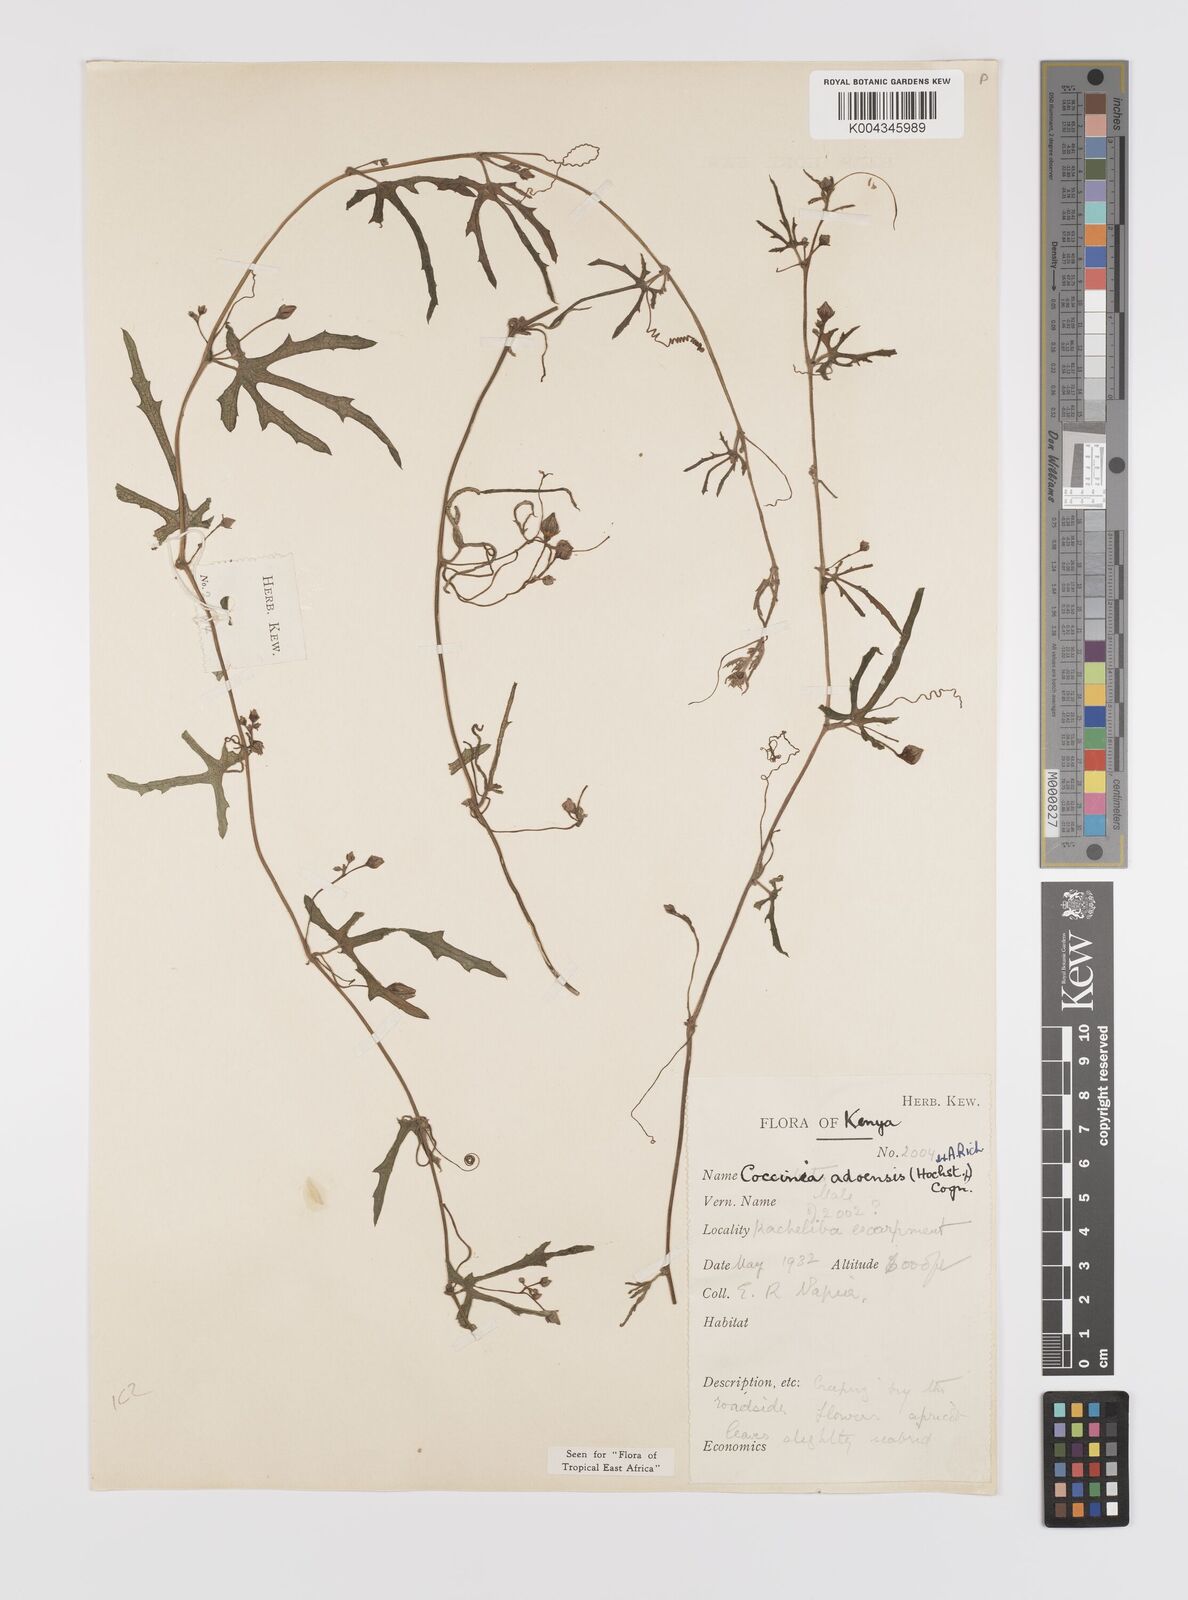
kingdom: Plantae
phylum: Tracheophyta
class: Magnoliopsida
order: Cucurbitales
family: Cucurbitaceae
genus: Coccinia
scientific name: Coccinia adoensis
